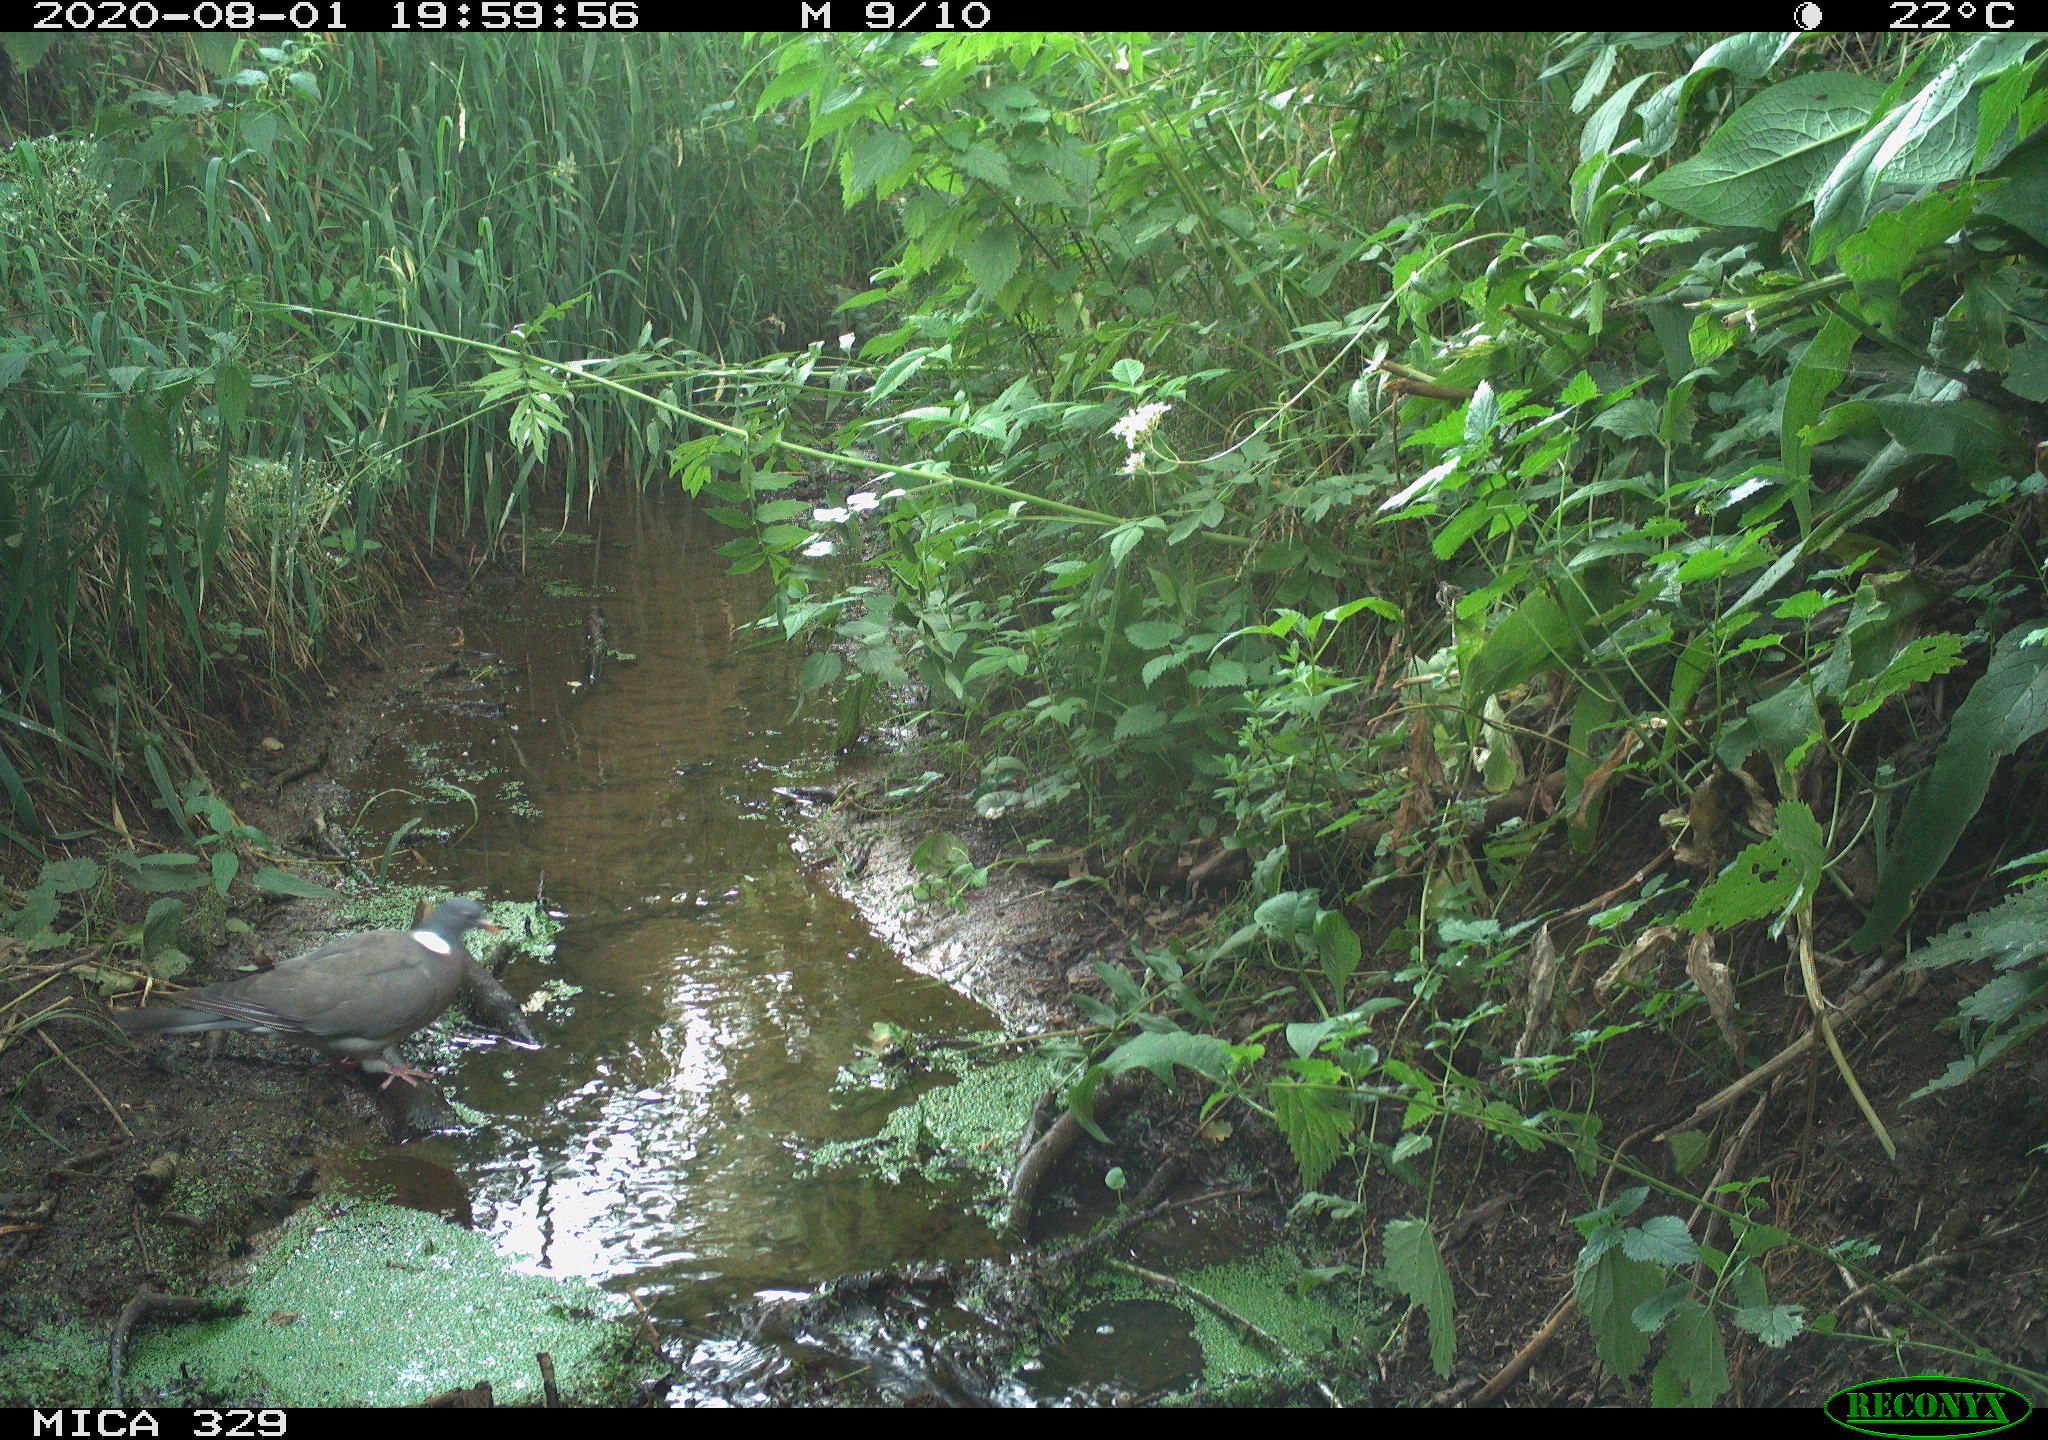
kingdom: Animalia
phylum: Chordata
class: Aves
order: Columbiformes
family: Columbidae
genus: Columba
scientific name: Columba palumbus
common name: Common wood pigeon
